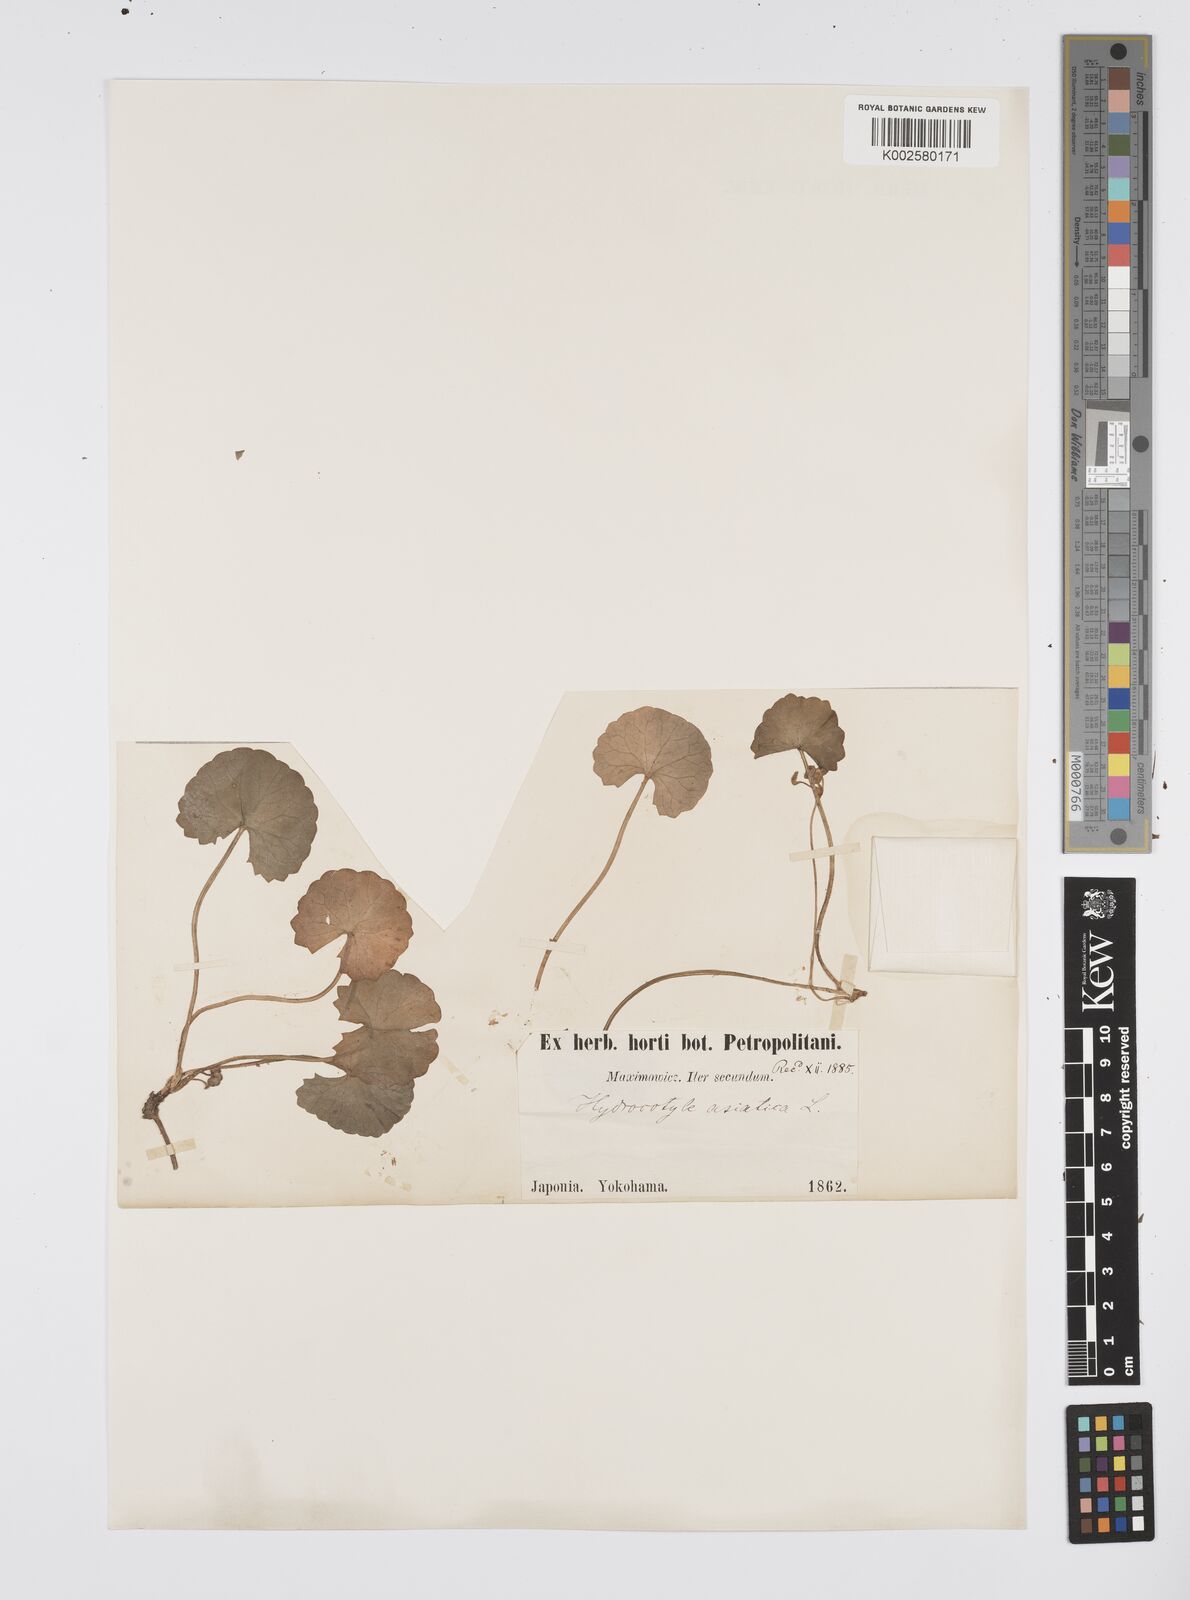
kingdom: Plantae
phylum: Tracheophyta
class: Magnoliopsida
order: Apiales
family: Apiaceae
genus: Centella
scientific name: Centella asiatica
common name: Spadeleaf
